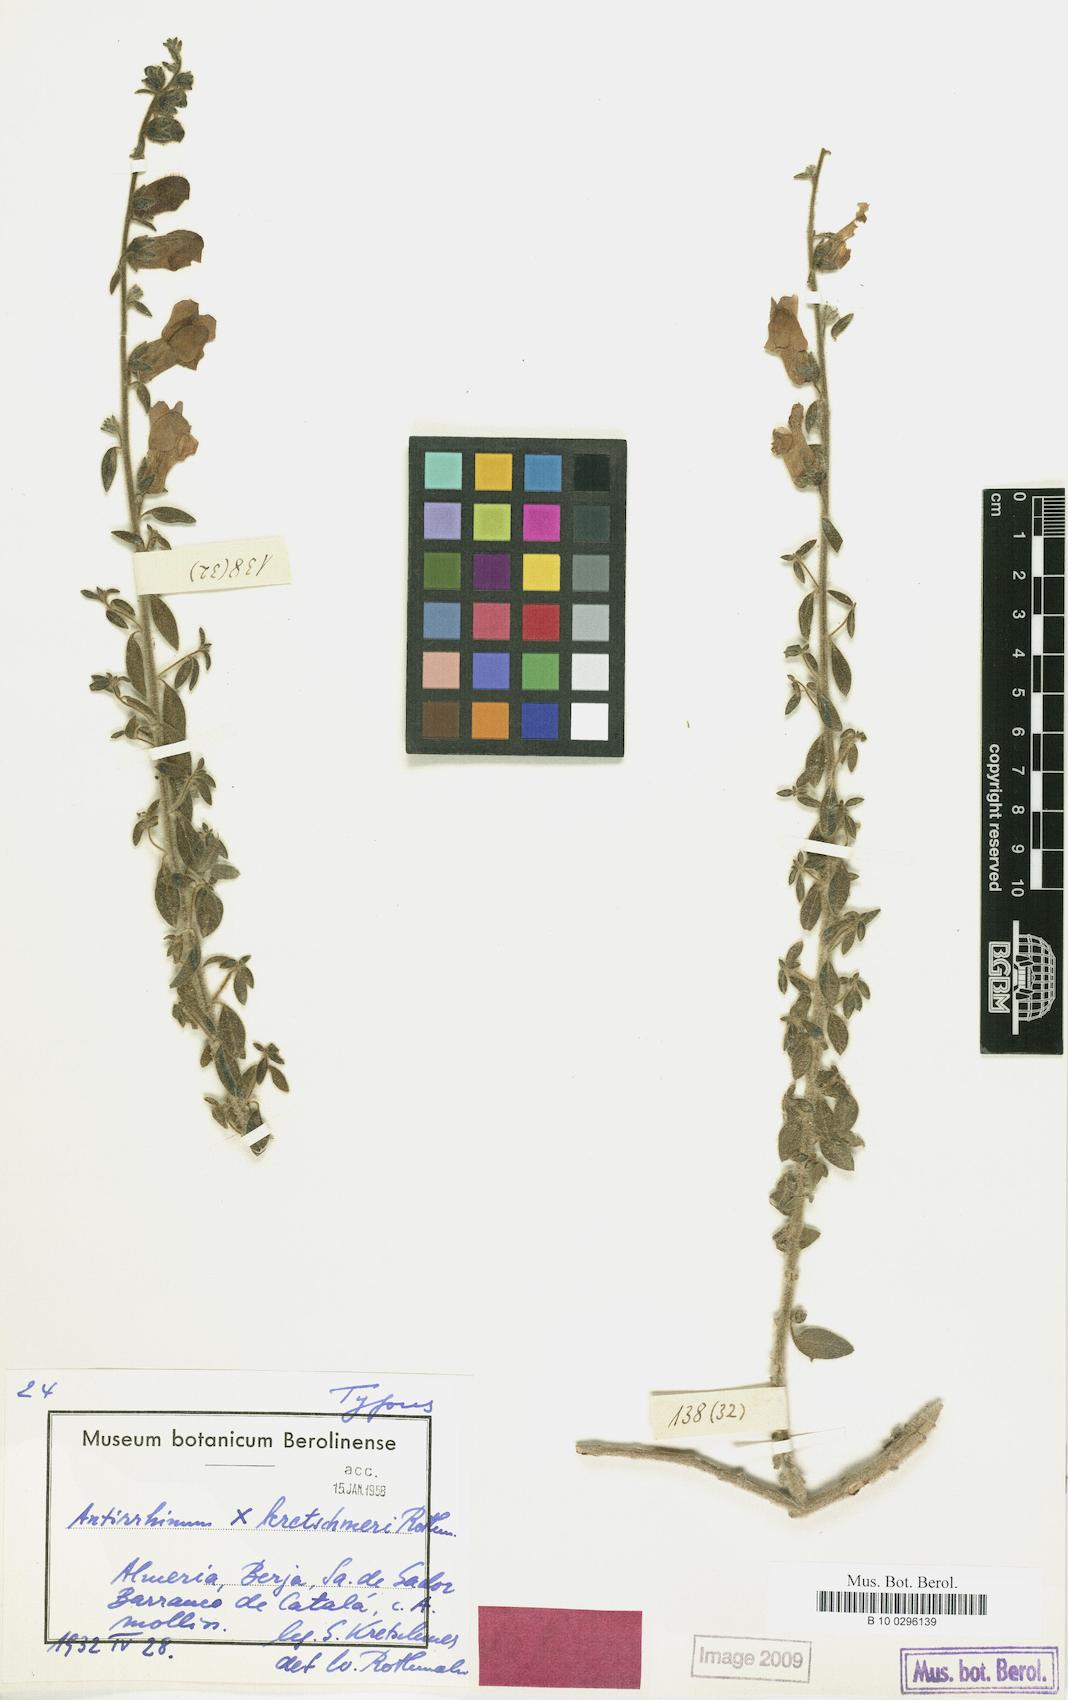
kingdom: Plantae
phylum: Tracheophyta
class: Magnoliopsida
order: Lamiales
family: Plantaginaceae
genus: Antirrhinum
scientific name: Antirrhinum chavannesii
